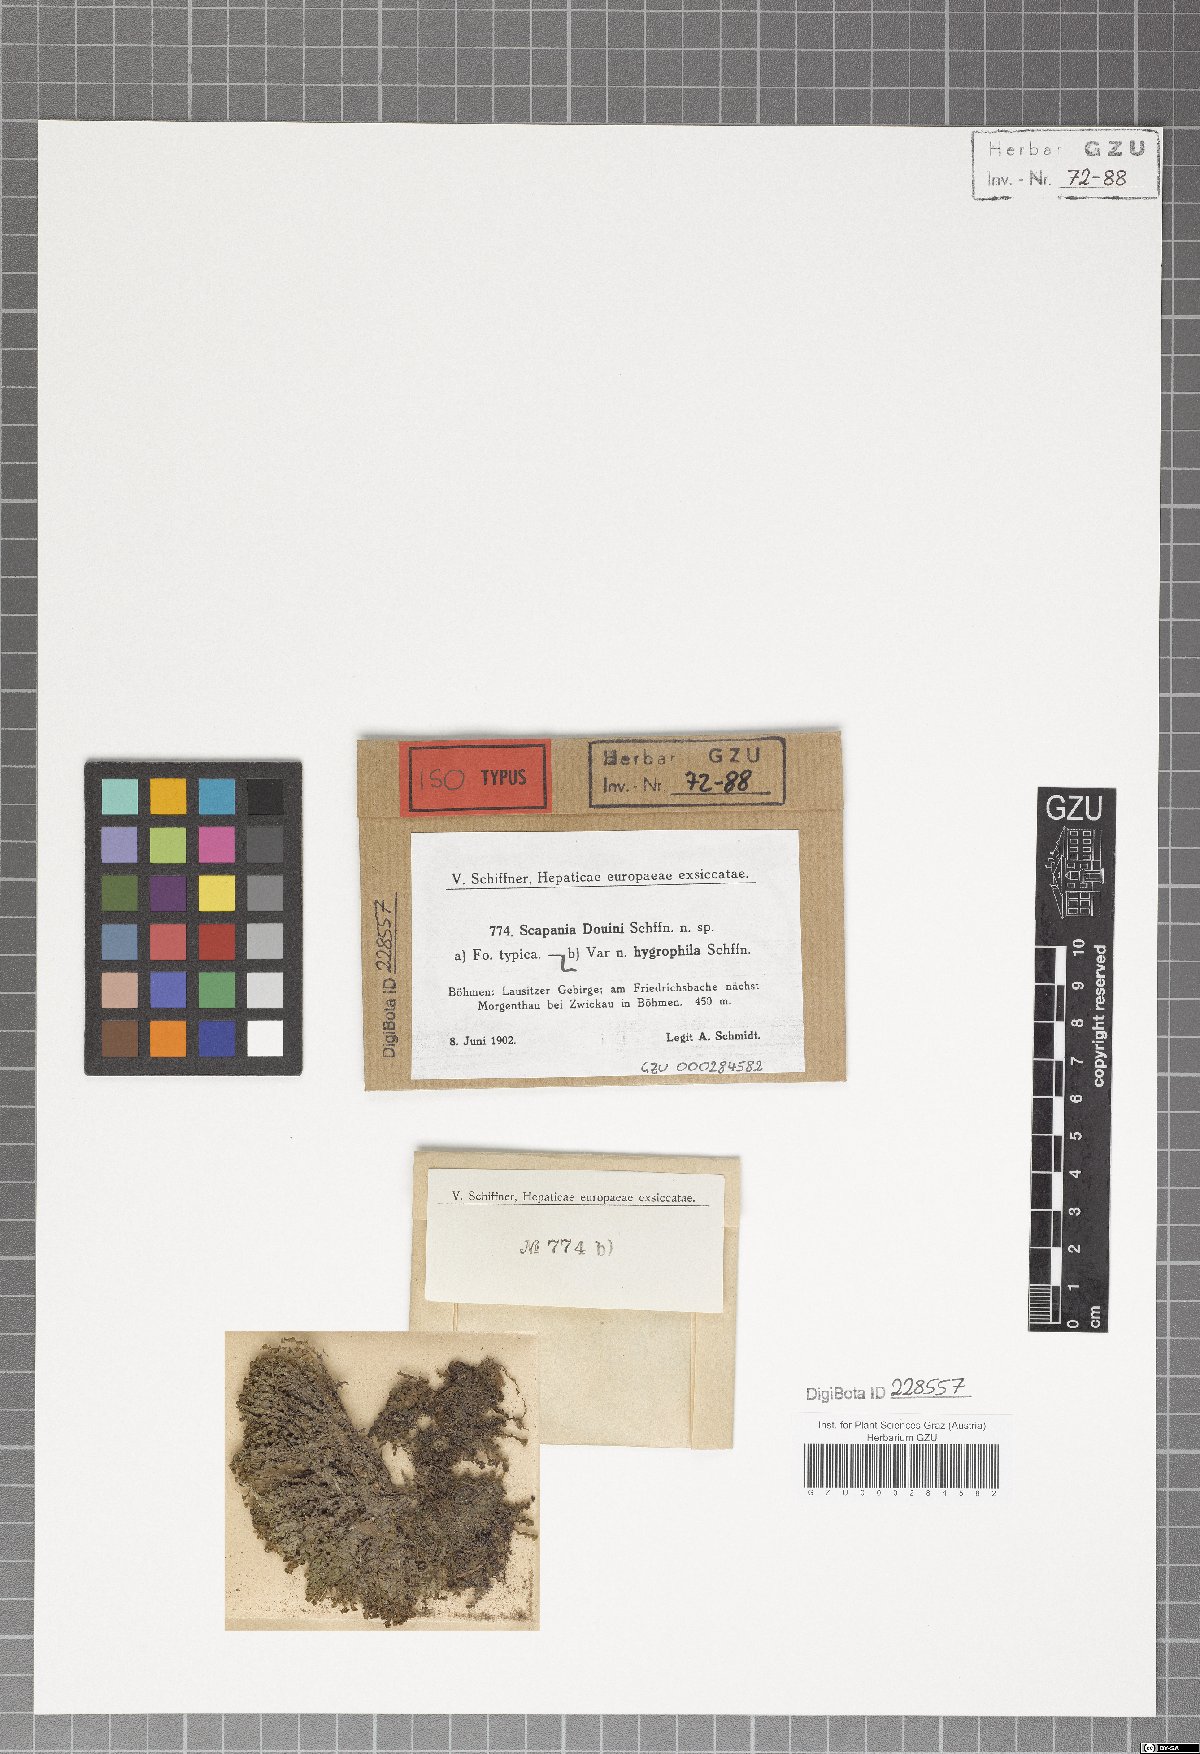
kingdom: Plantae
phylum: Marchantiophyta
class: Jungermanniopsida
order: Jungermanniales
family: Scapaniaceae
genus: Scapania
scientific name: Scapania undulata
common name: Water earwort
